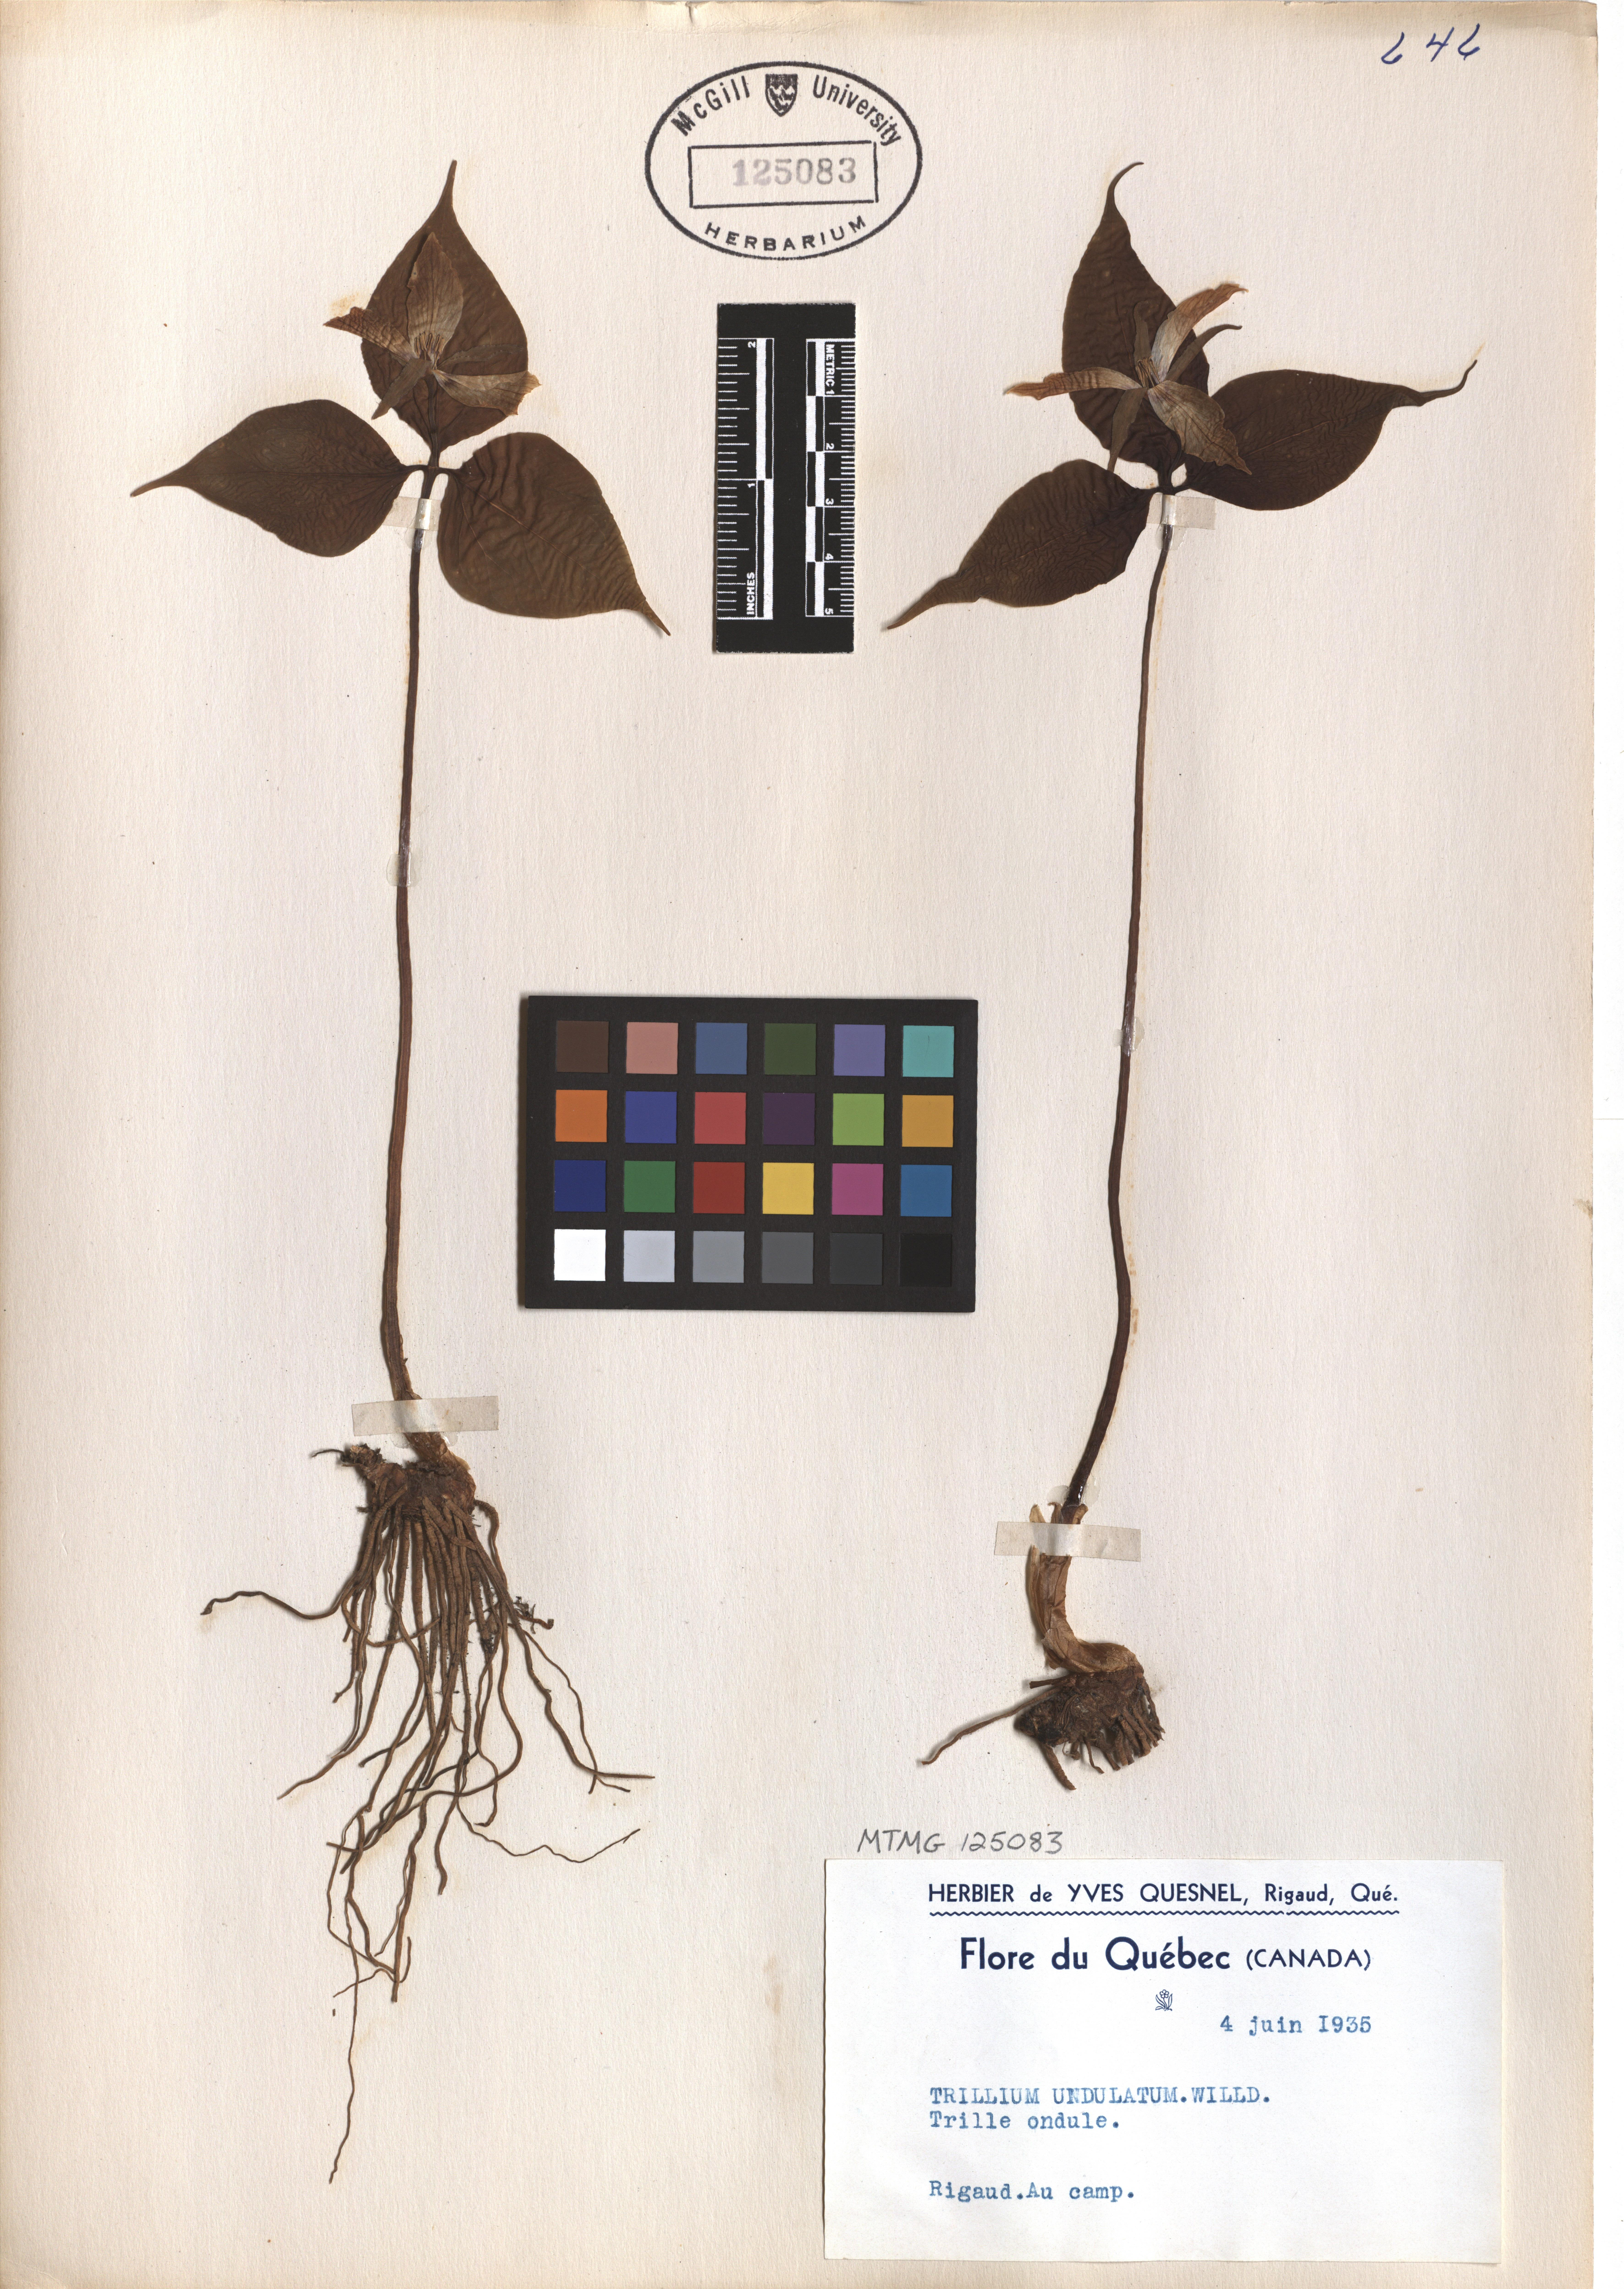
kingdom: Plantae
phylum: Tracheophyta
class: Liliopsida
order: Liliales
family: Melanthiaceae
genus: Trillium
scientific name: Trillium undulatum
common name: Paint trillium
